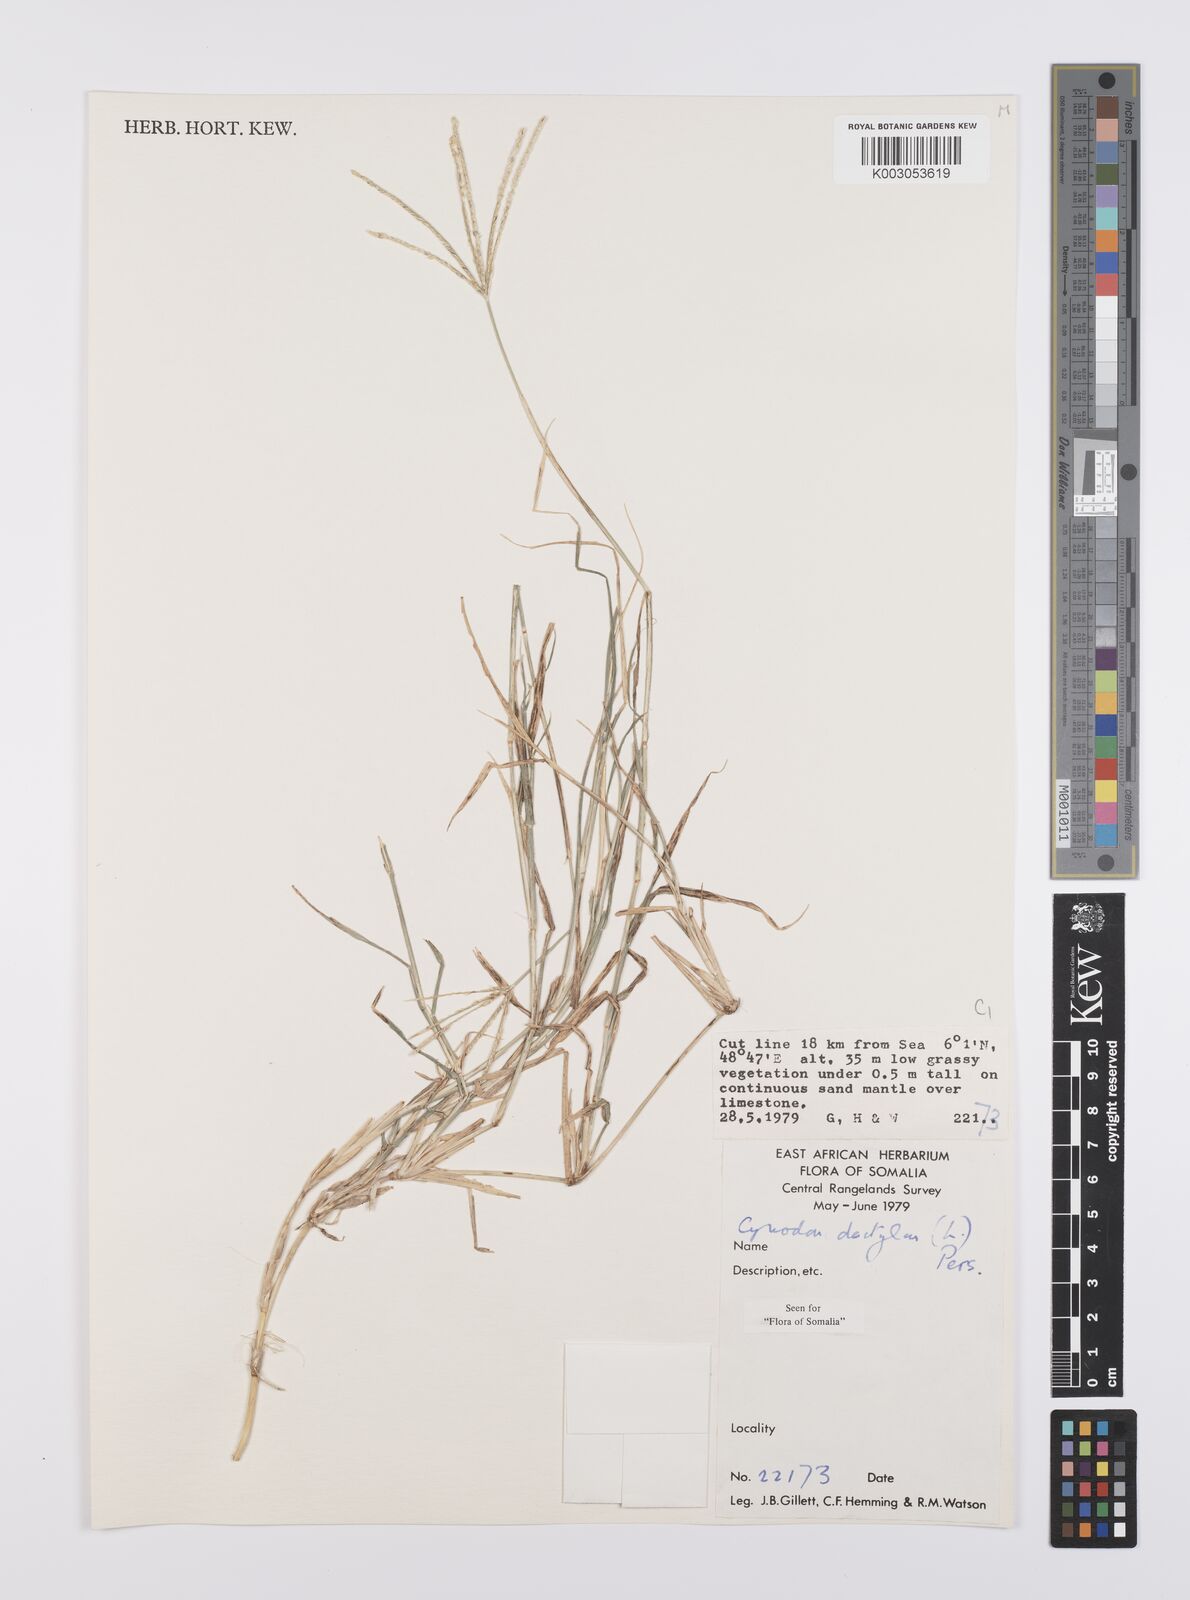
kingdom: Plantae
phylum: Tracheophyta
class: Liliopsida
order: Poales
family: Poaceae
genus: Cynodon
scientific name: Cynodon dactylon
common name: Bermuda grass
